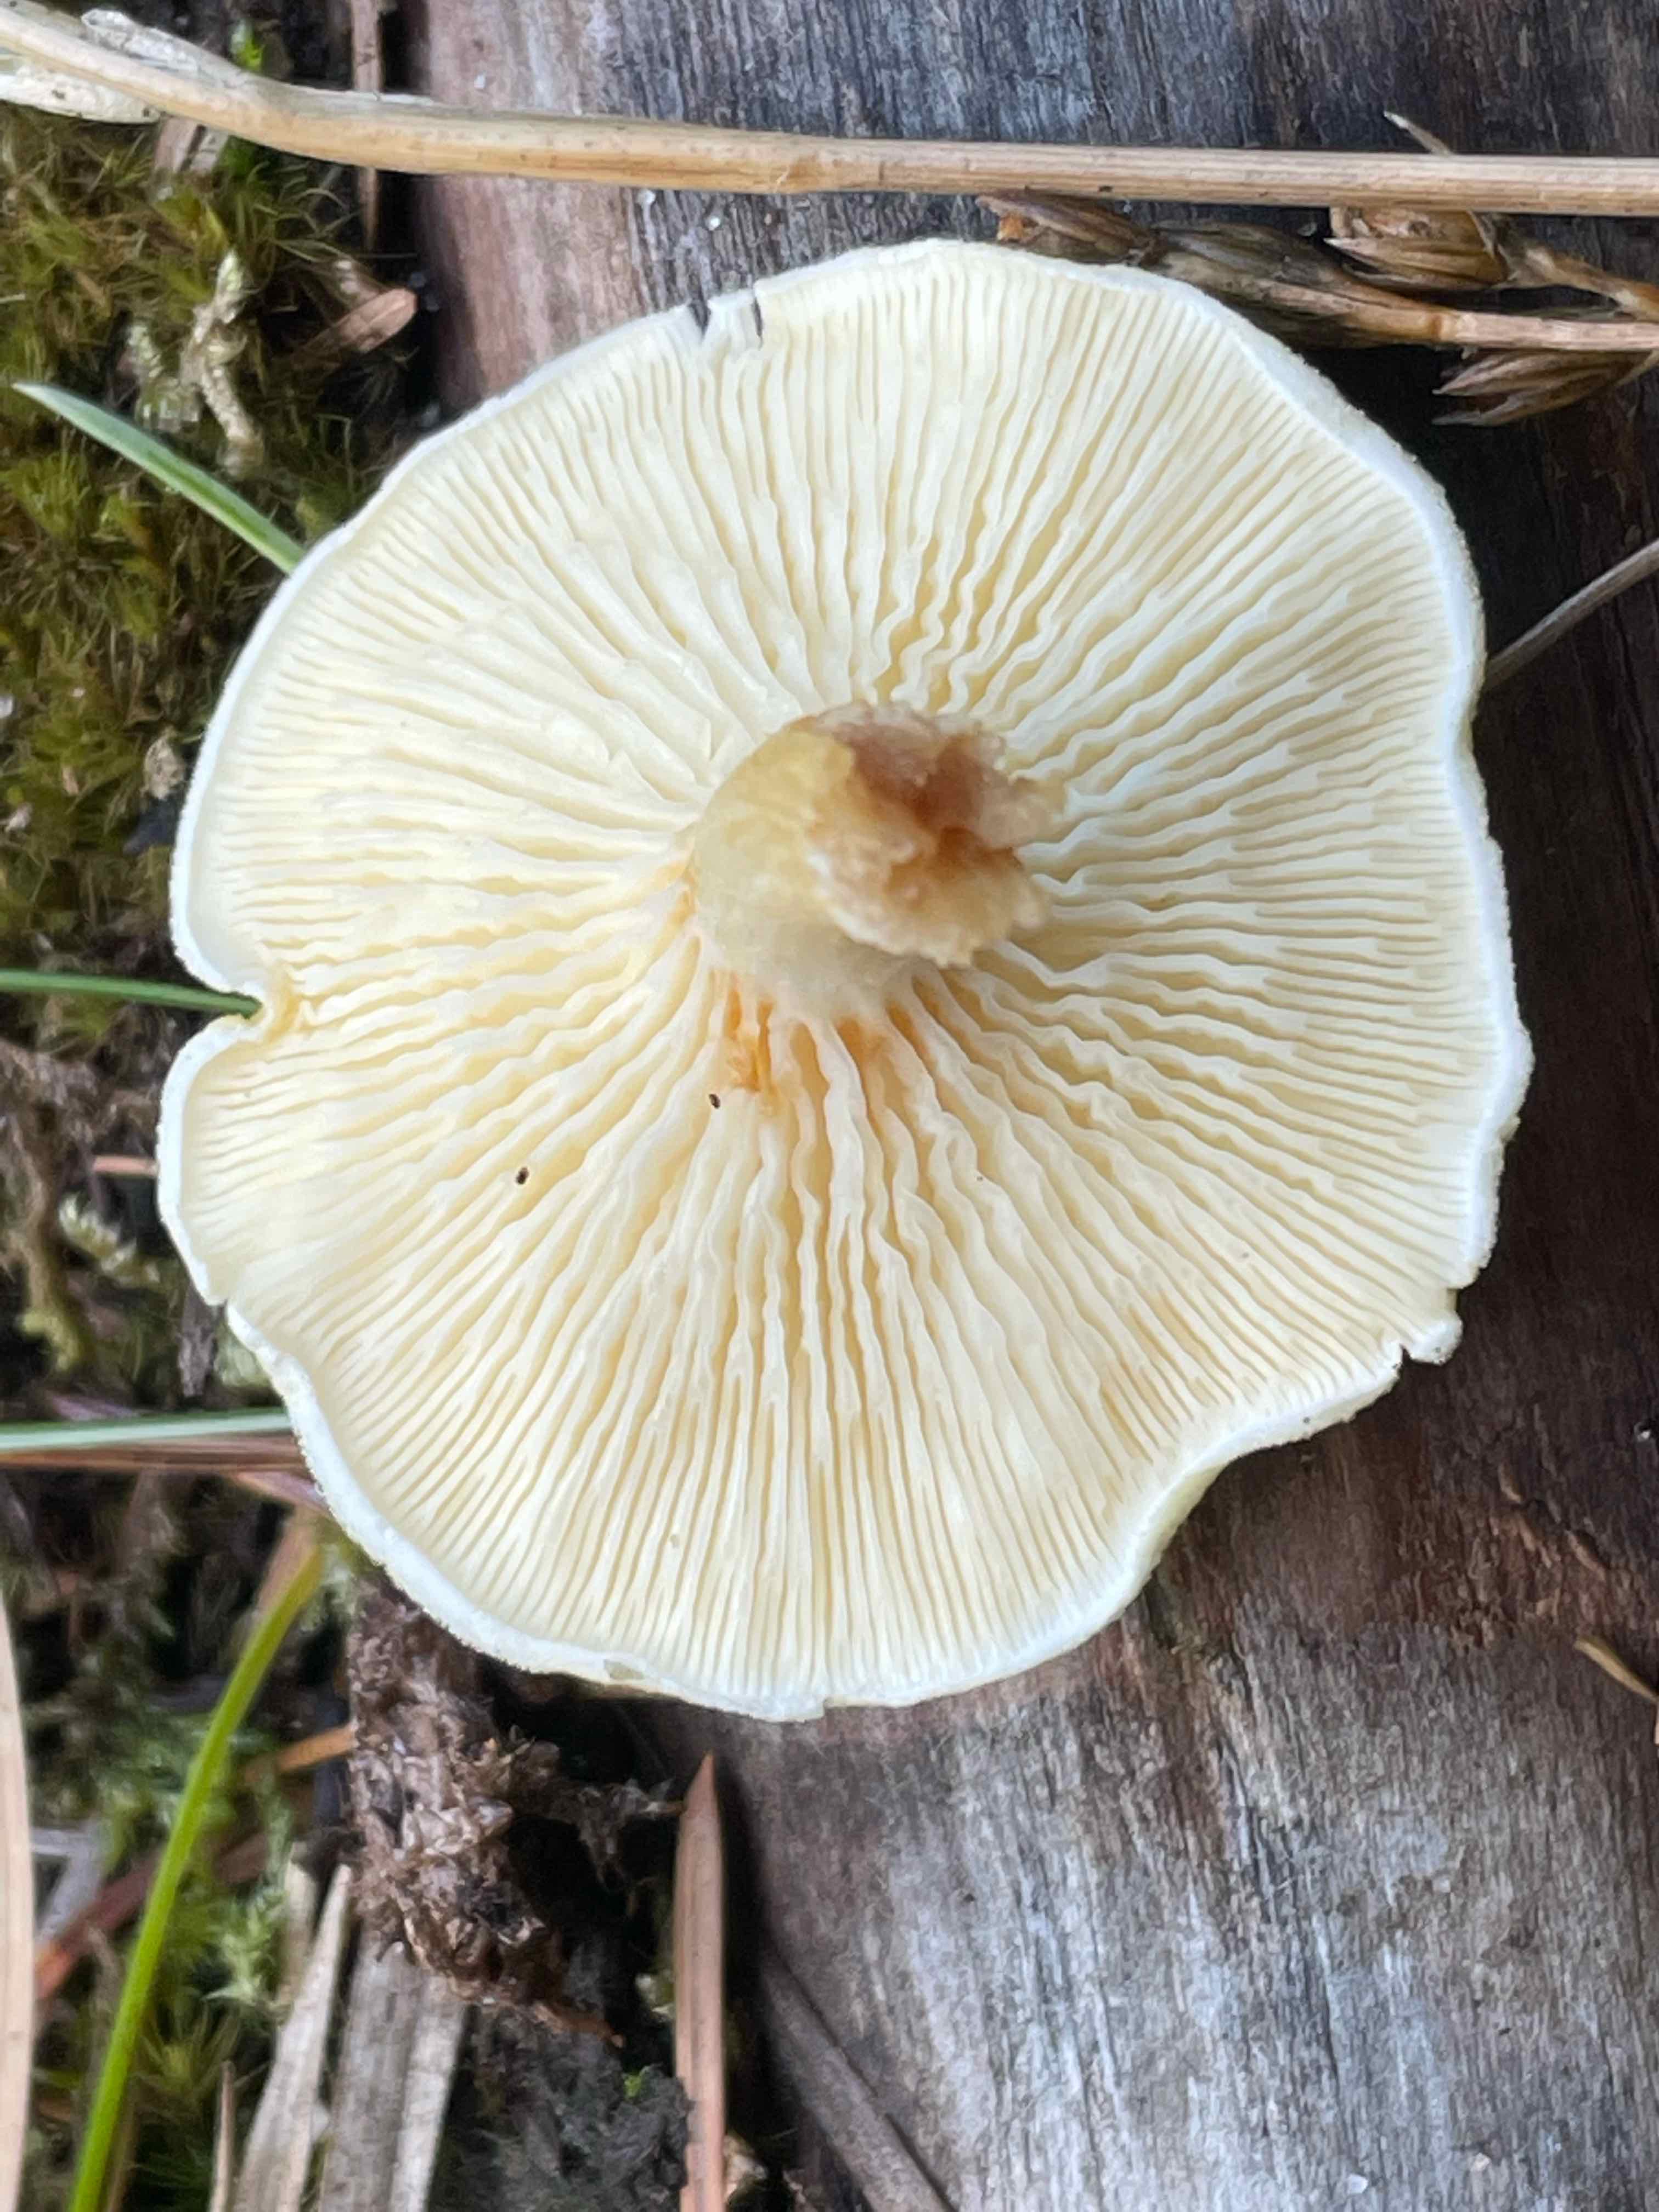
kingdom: Fungi
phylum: Basidiomycota
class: Agaricomycetes
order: Boletales
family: Hygrophoropsidaceae
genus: Hygrophoropsis
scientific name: Hygrophoropsis pallida
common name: bleg orangekantarel
